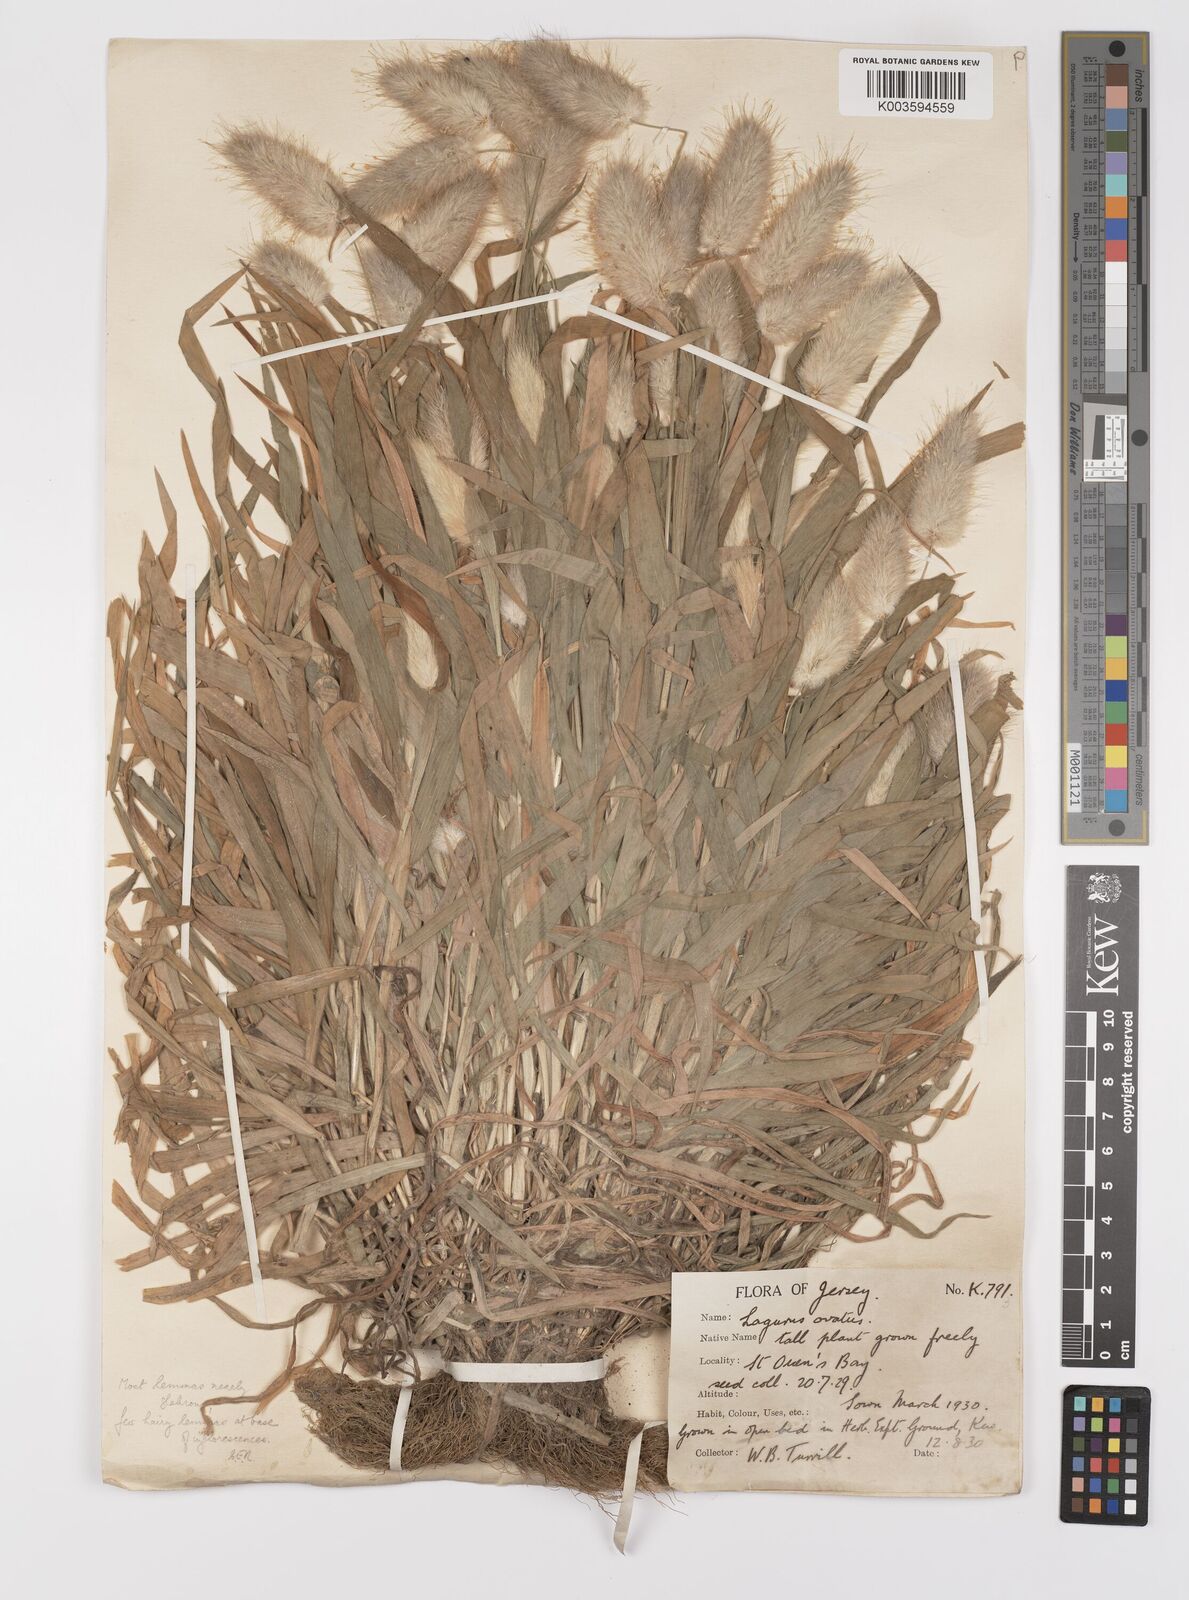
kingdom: Plantae
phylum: Tracheophyta
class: Liliopsida
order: Poales
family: Poaceae
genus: Lagurus
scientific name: Lagurus ovatus
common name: Hare's-tail
